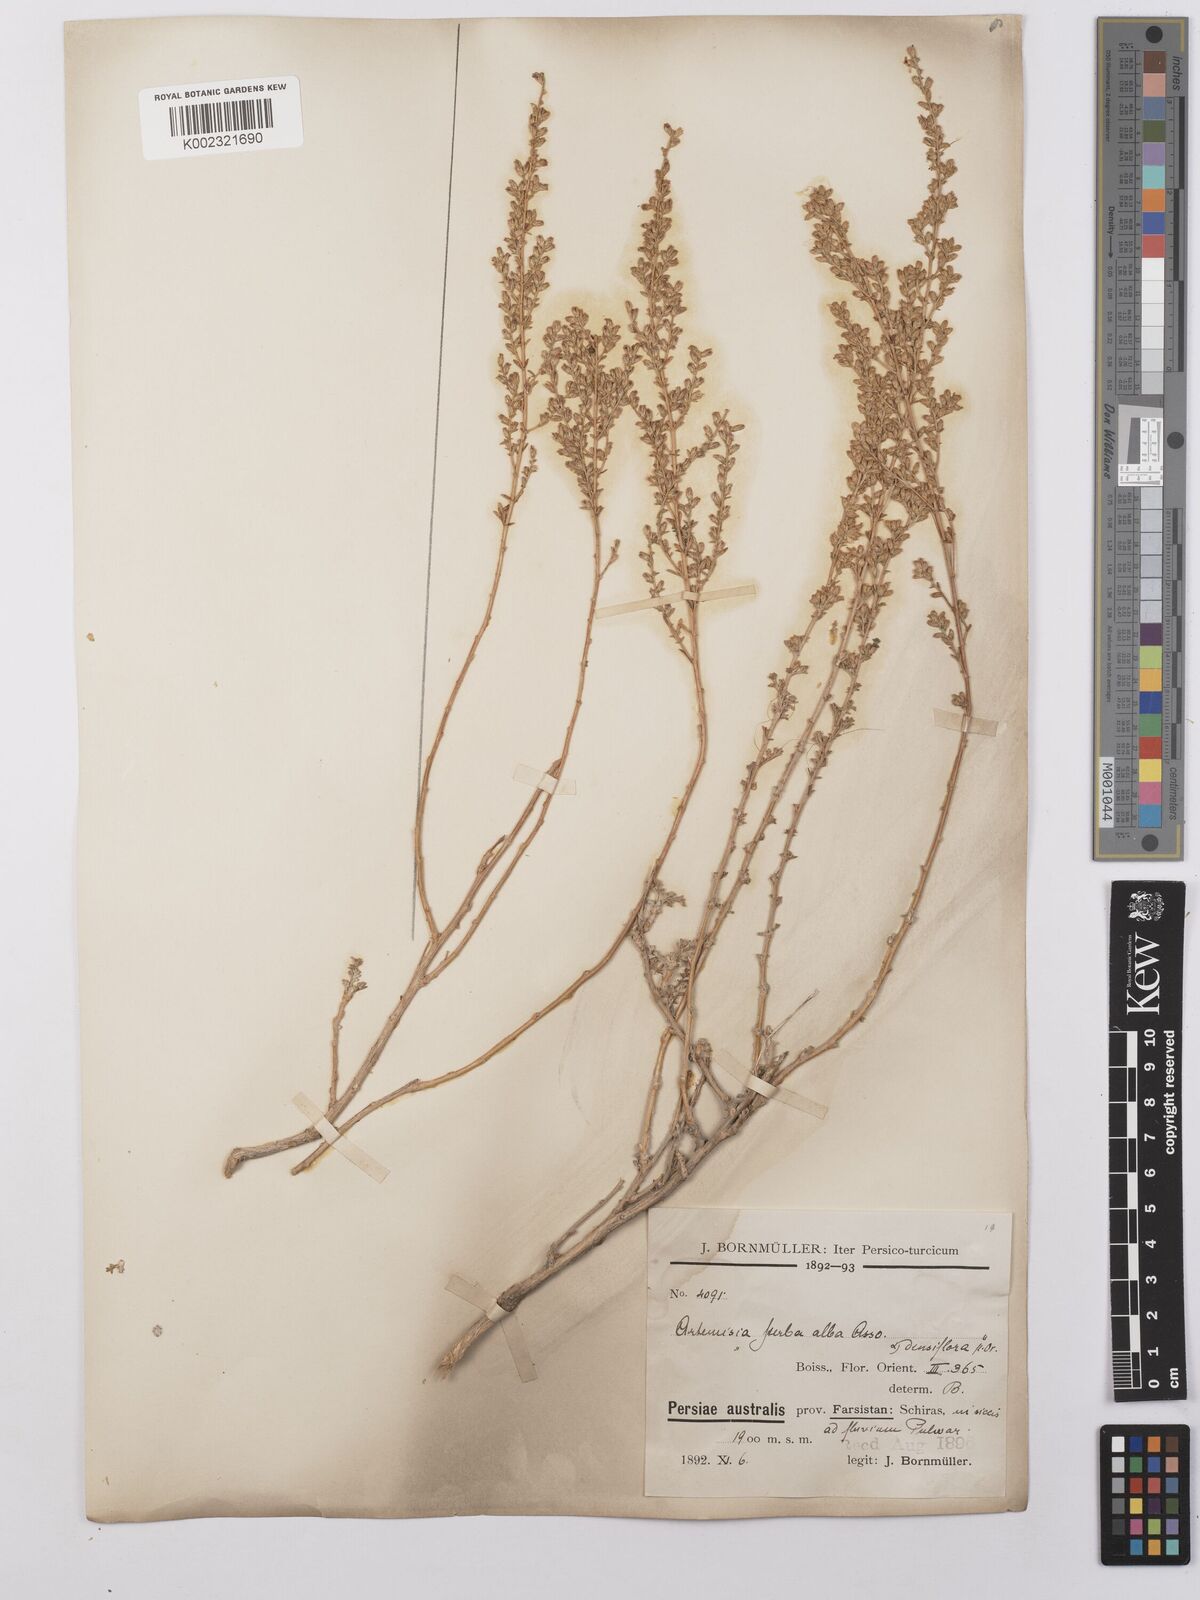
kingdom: Plantae
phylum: Tracheophyta
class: Magnoliopsida
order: Asterales
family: Asteraceae
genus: Artemisia
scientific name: Artemisia herba-alba
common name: White wormwood
